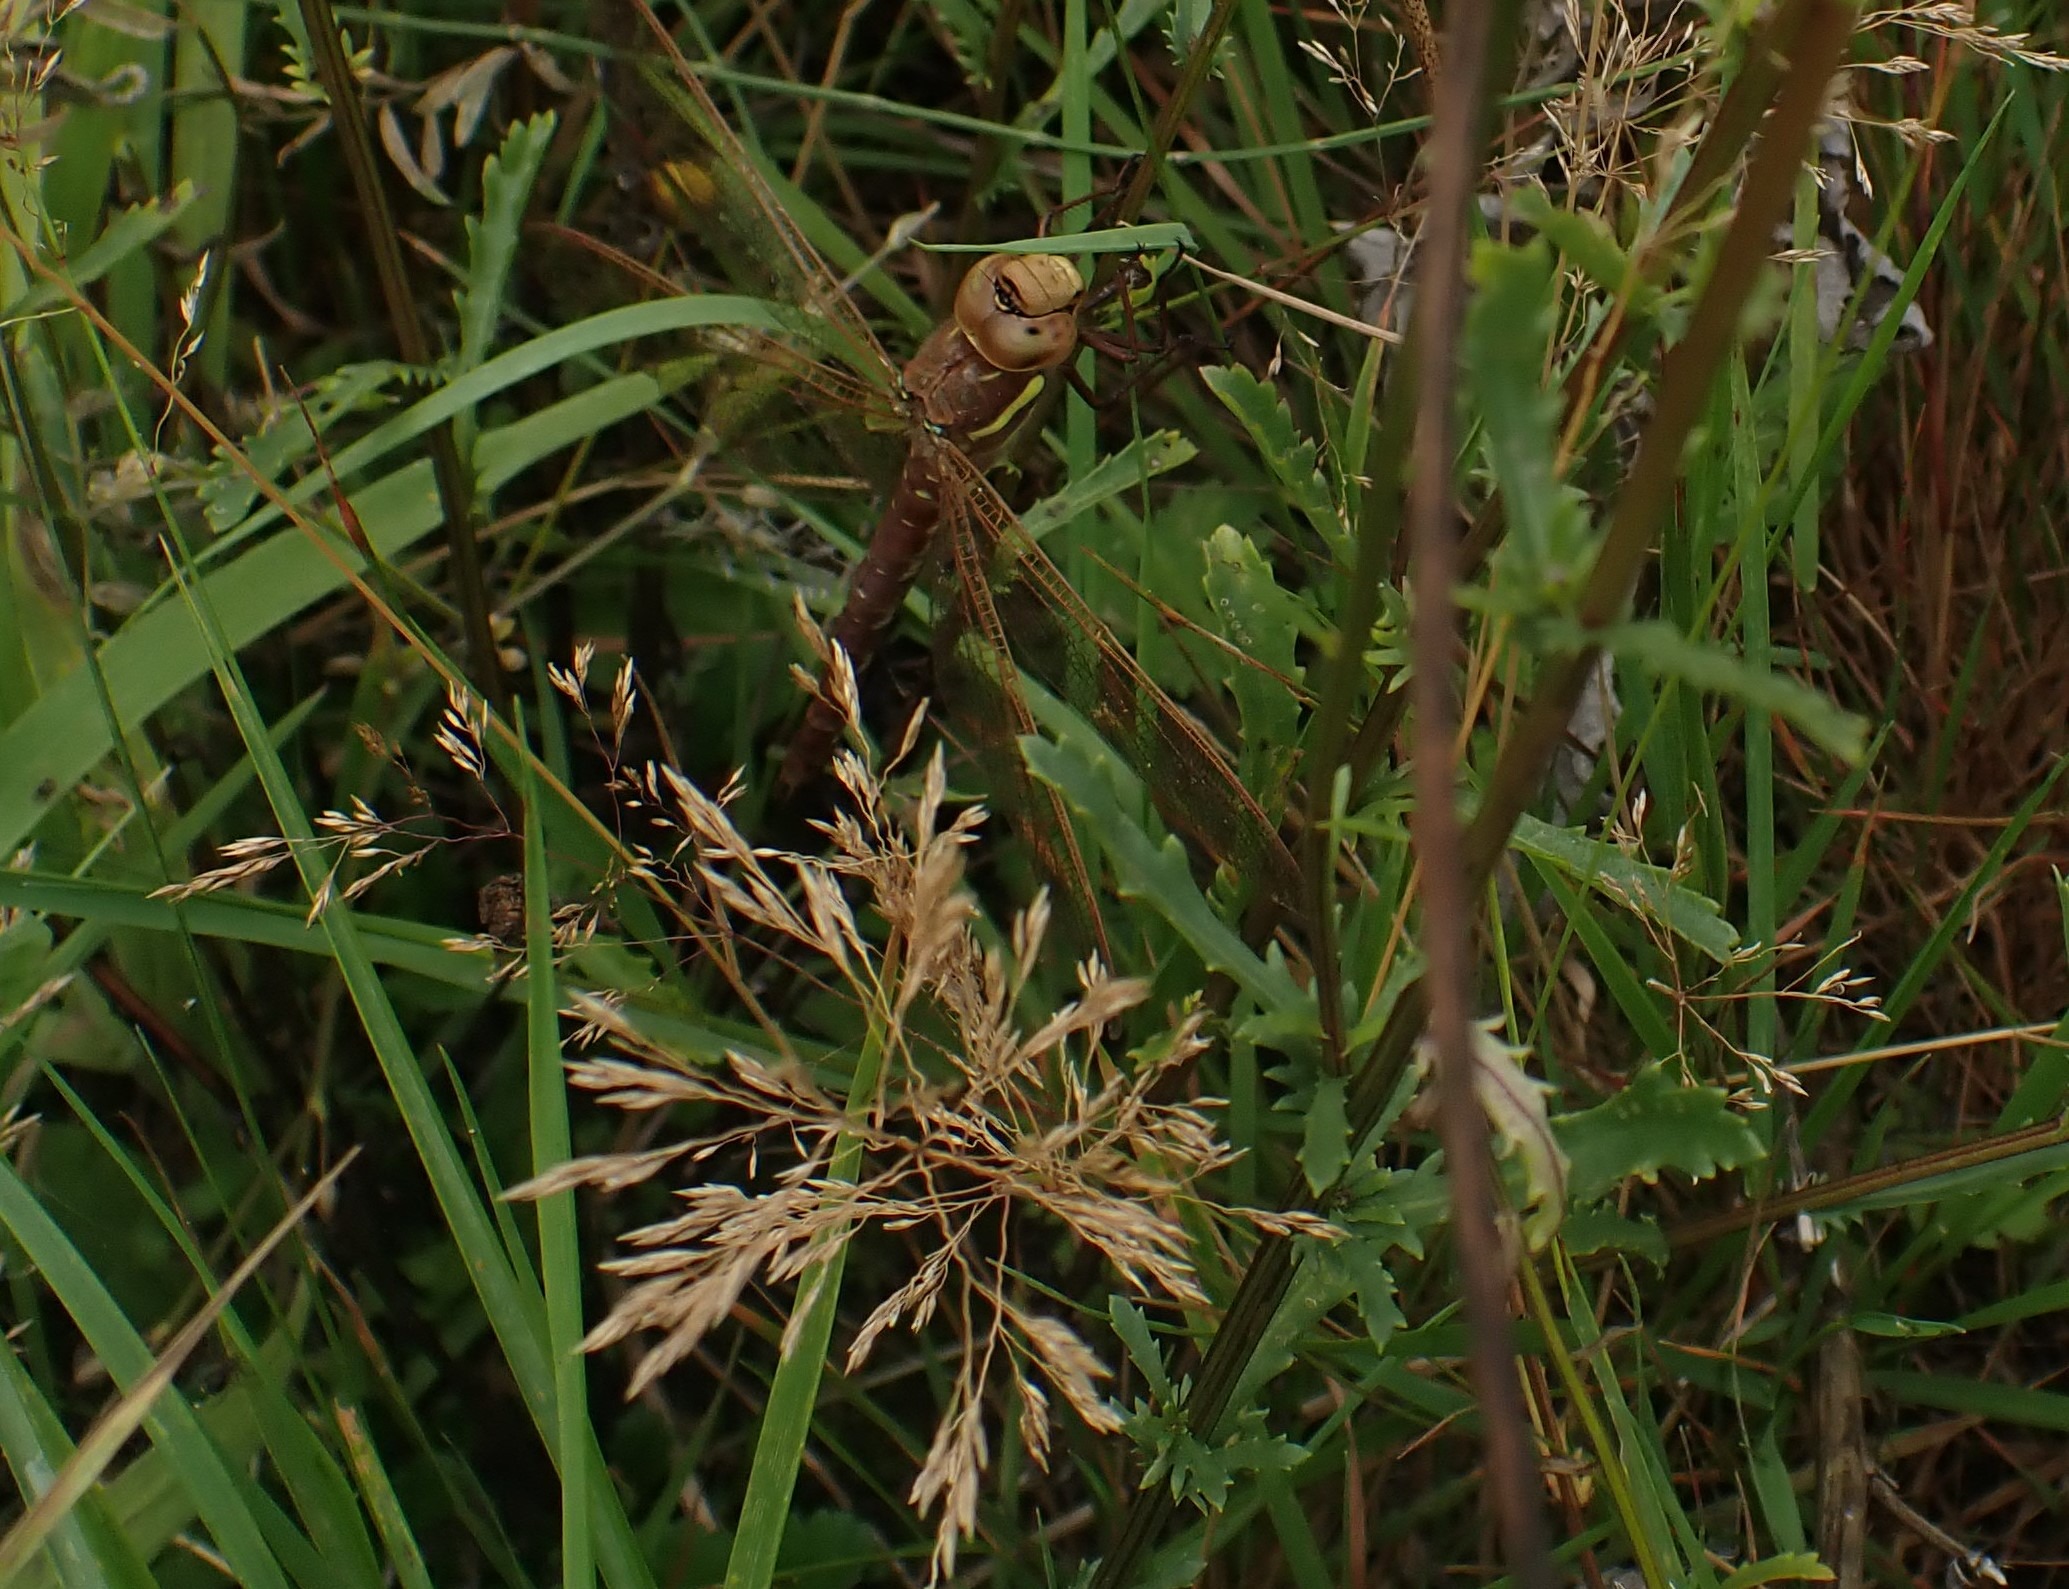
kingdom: Plantae
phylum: Tracheophyta
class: Magnoliopsida
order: Asterales
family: Asteraceae
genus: Leucanthemum
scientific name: Leucanthemum vulgare
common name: Hvid okseøje
